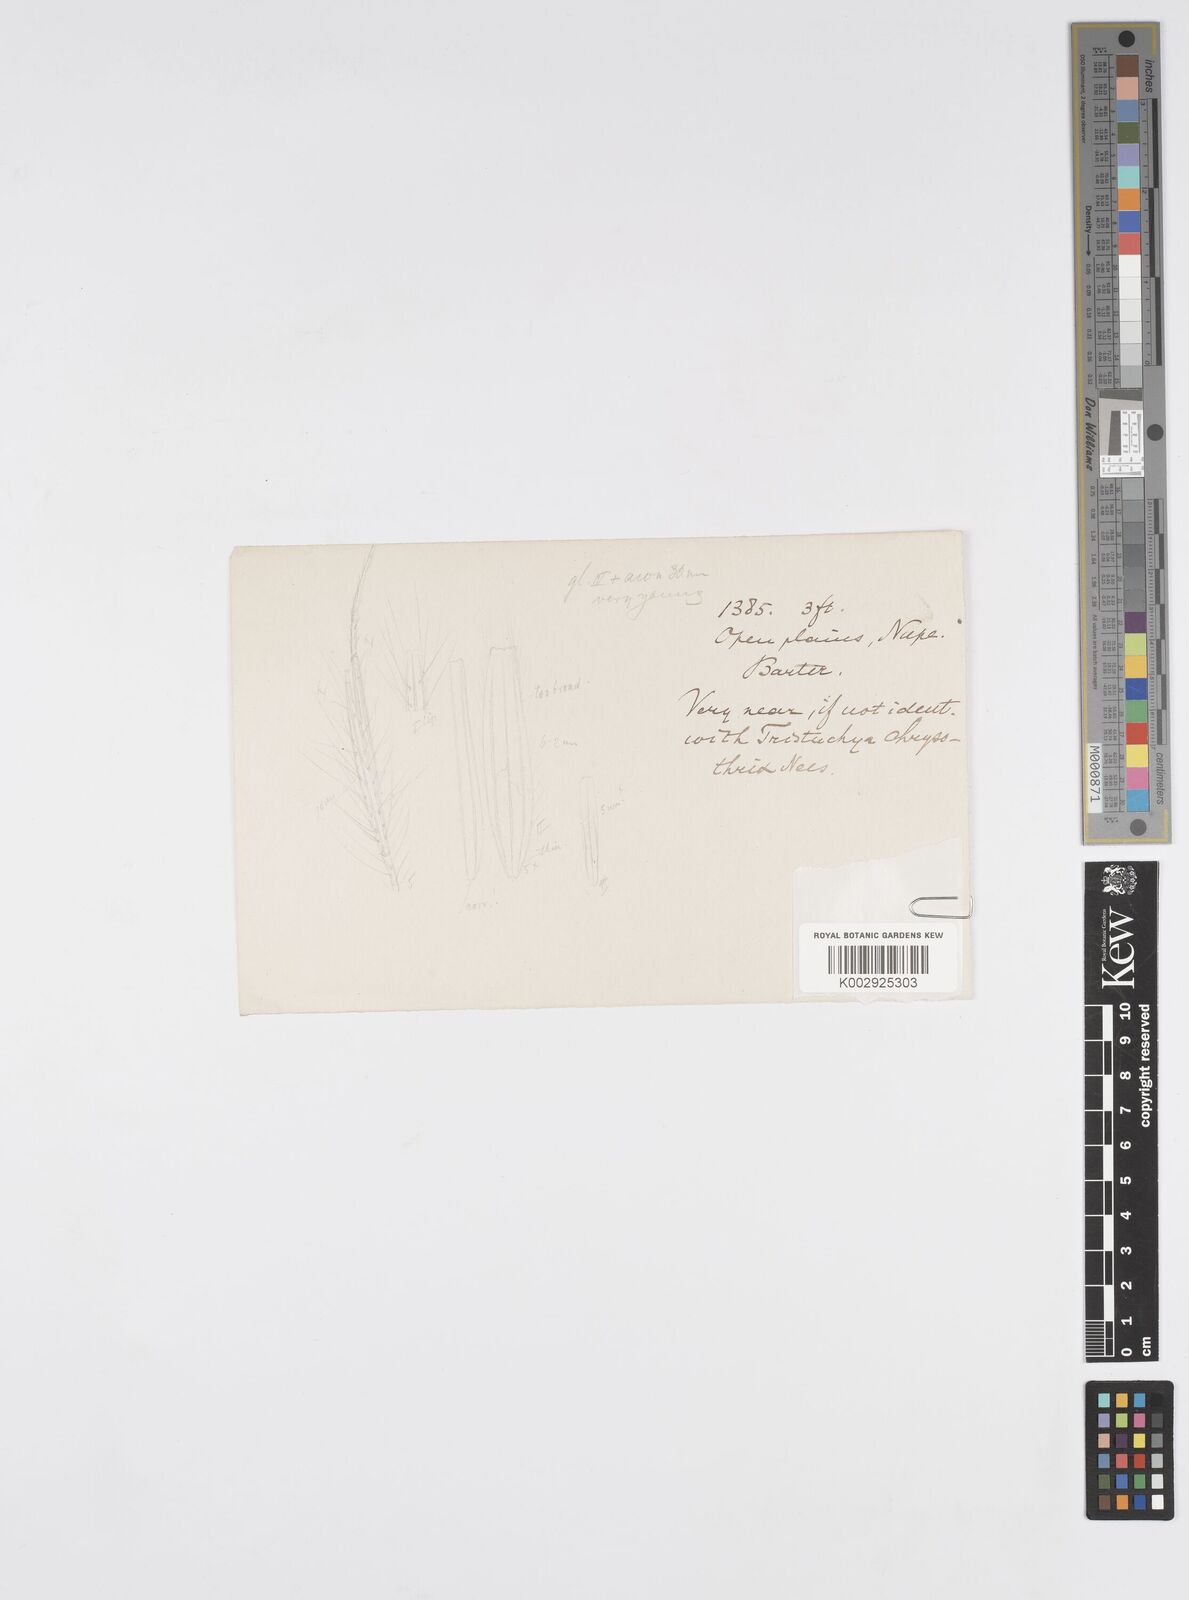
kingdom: Plantae
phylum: Tracheophyta
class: Liliopsida
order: Poales
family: Poaceae
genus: Loudetiopsis
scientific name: Loudetiopsis kerstingii
